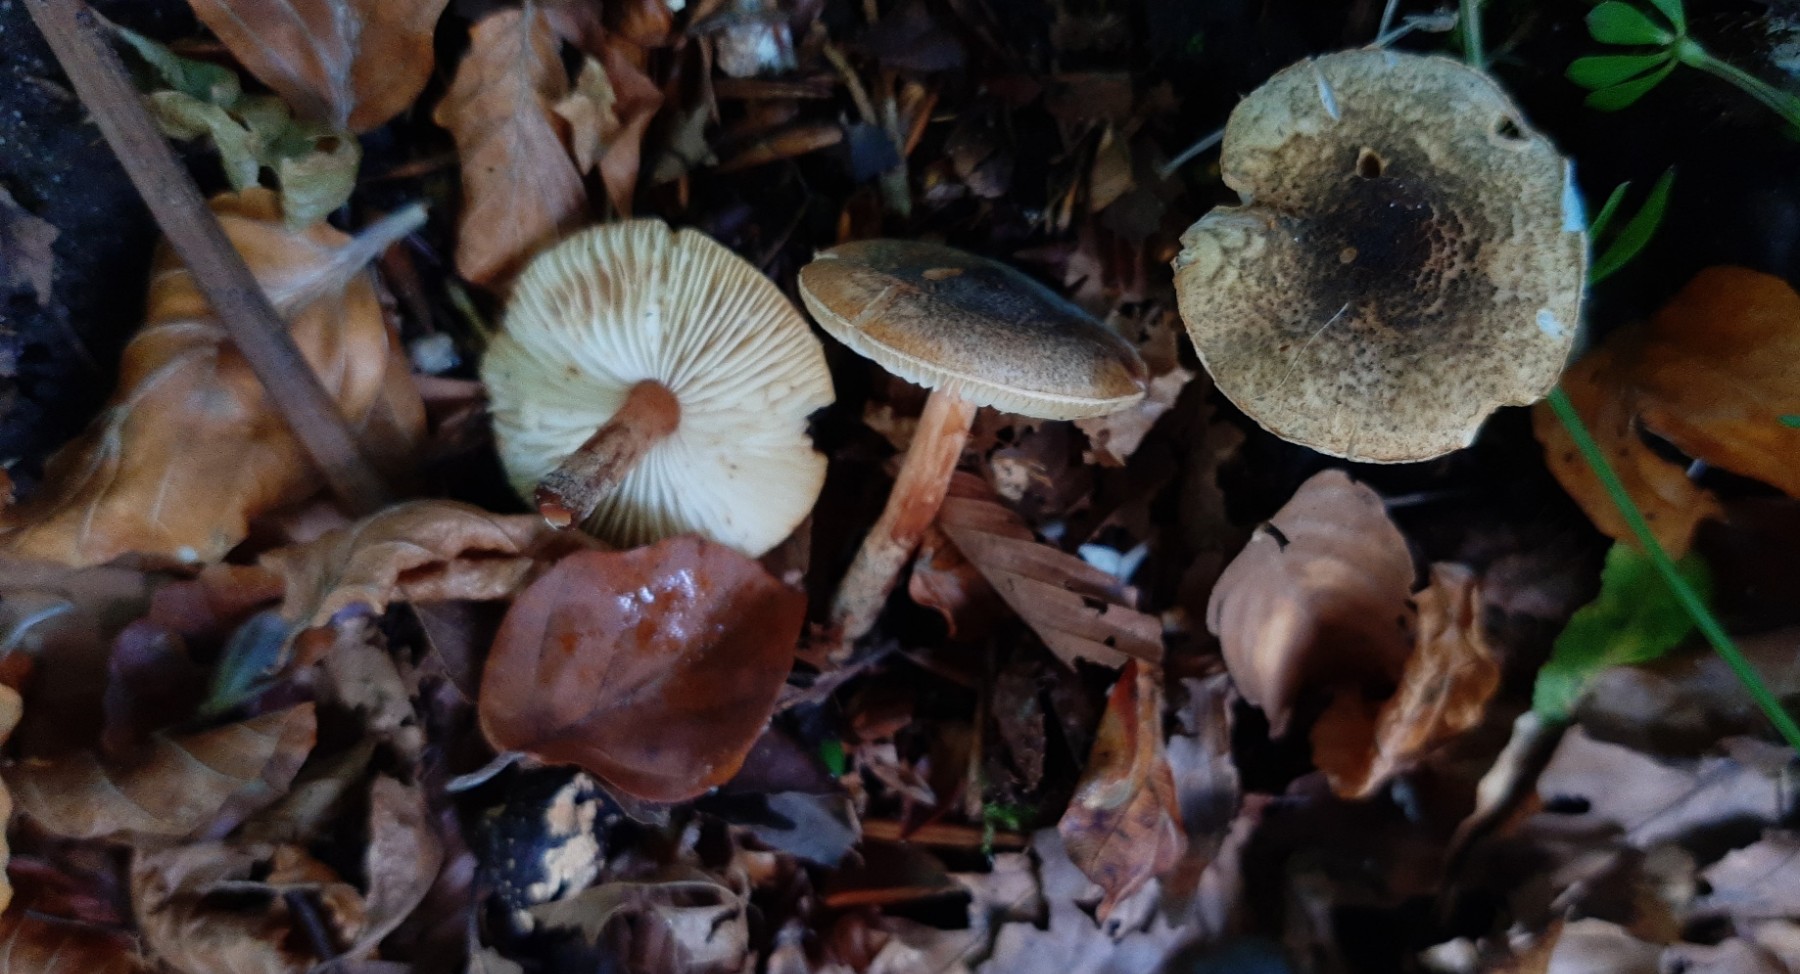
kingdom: Fungi
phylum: Basidiomycota
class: Agaricomycetes
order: Agaricales
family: Agaricaceae
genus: Lepiota
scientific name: Lepiota grangei
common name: grønskællet parasolhat
